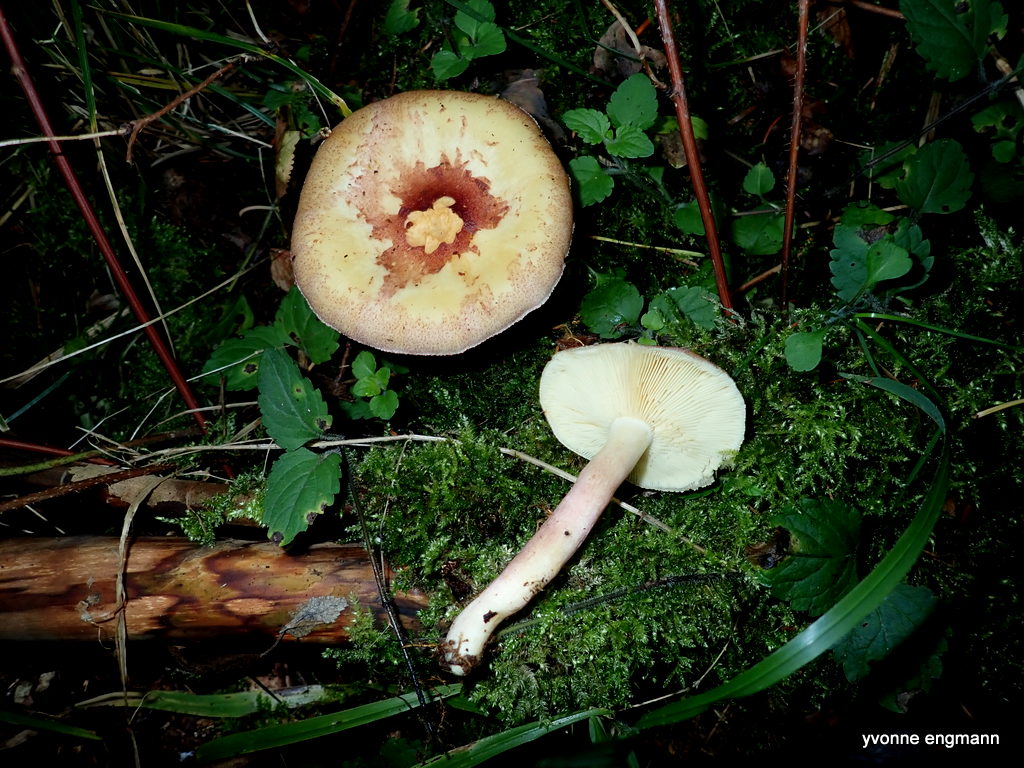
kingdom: Fungi
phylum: Basidiomycota
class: Agaricomycetes
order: Agaricales
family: Tricholomataceae
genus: Tricholomopsis
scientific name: Tricholomopsis rutilans
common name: purpur-væbnerhat
